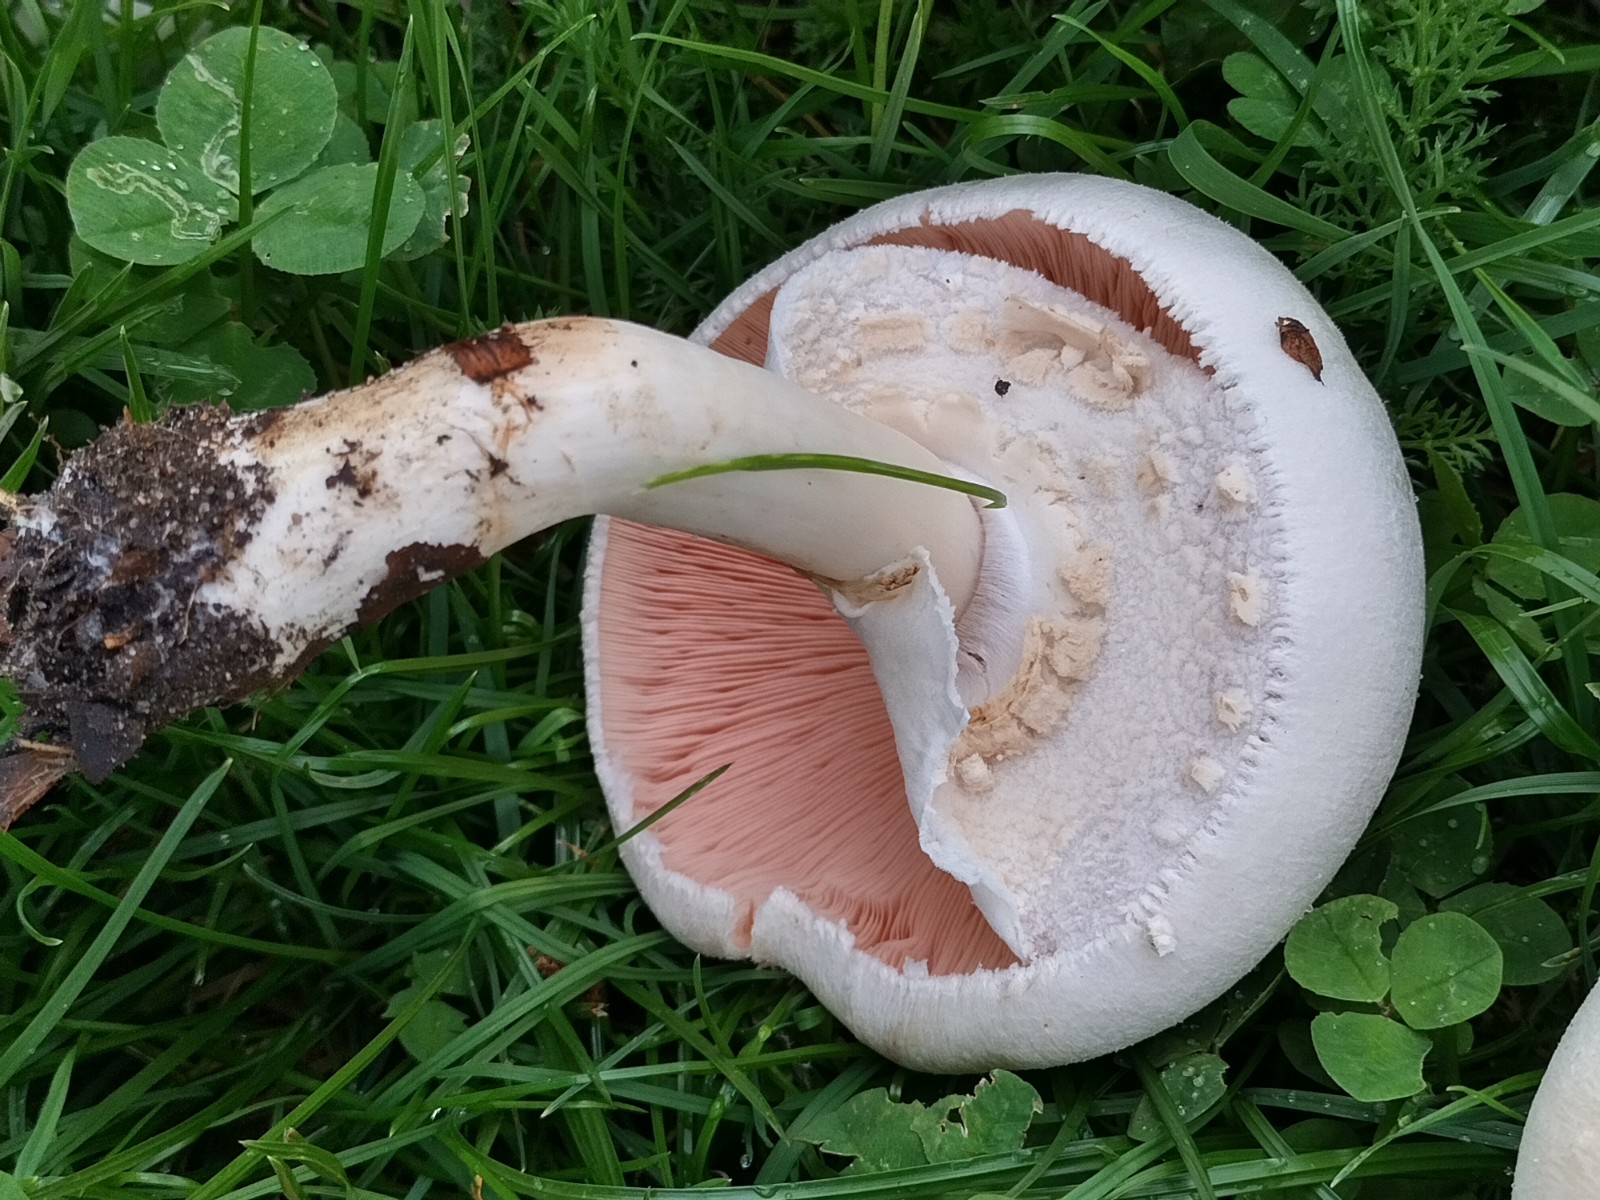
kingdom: Fungi
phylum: Basidiomycota
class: Agaricomycetes
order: Agaricales
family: Agaricaceae
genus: Agaricus
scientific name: Agaricus xanthodermus
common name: karbol-champignon
